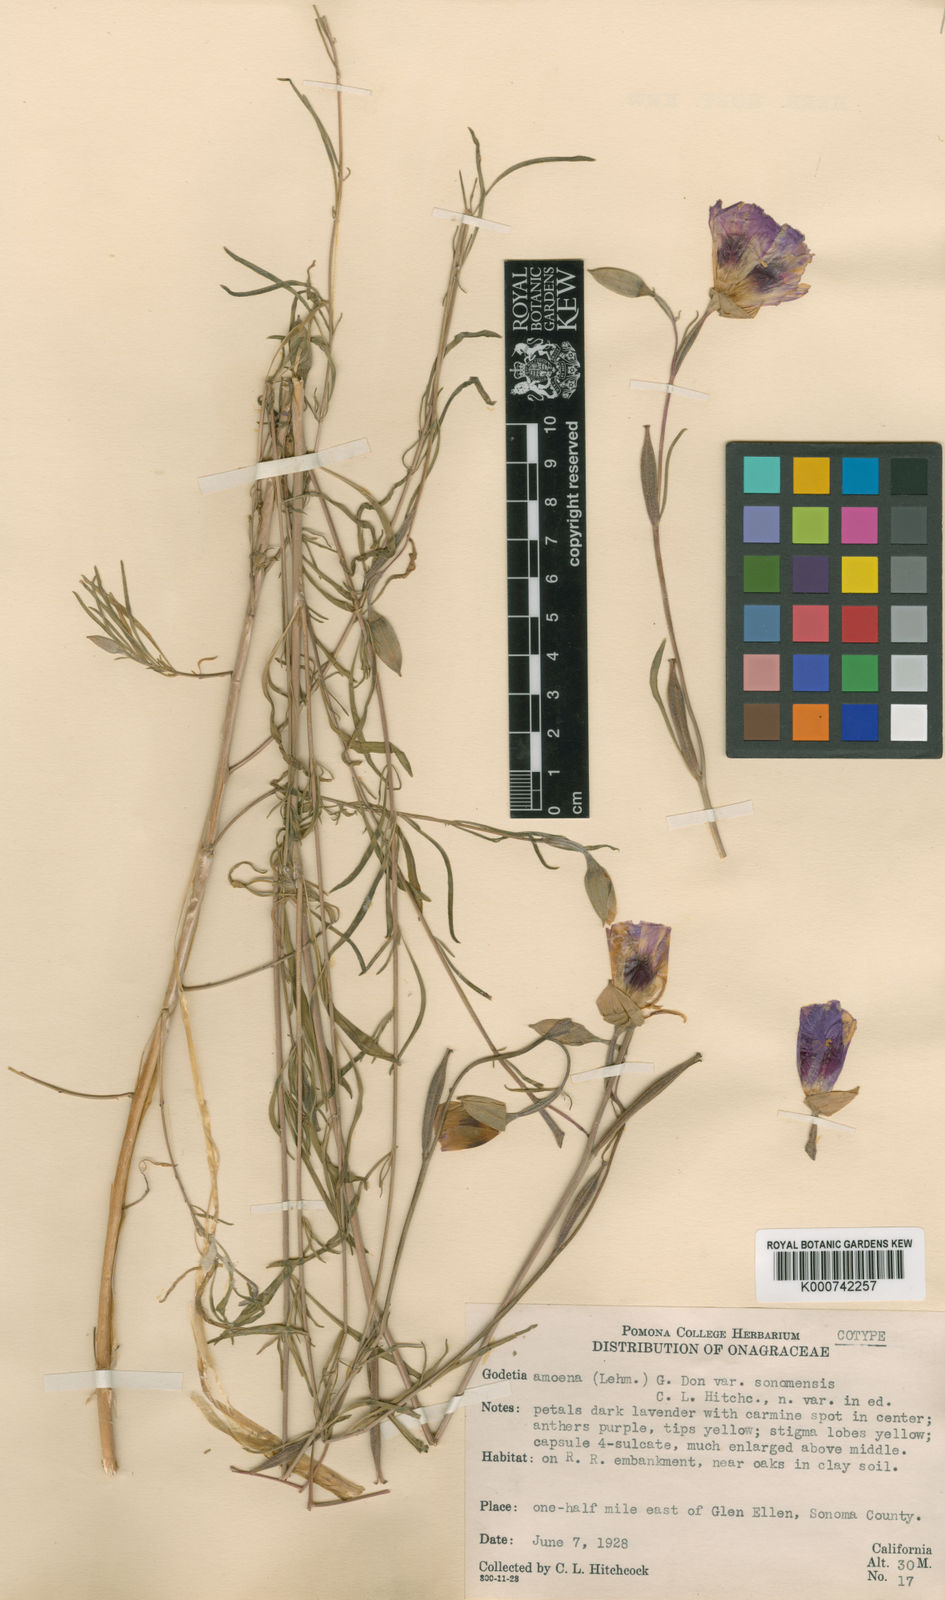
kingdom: Plantae
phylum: Tracheophyta
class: Magnoliopsida
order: Myrtales
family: Onagraceae
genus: Clarkia
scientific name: Clarkia gracilis
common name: Graceful clarkia
